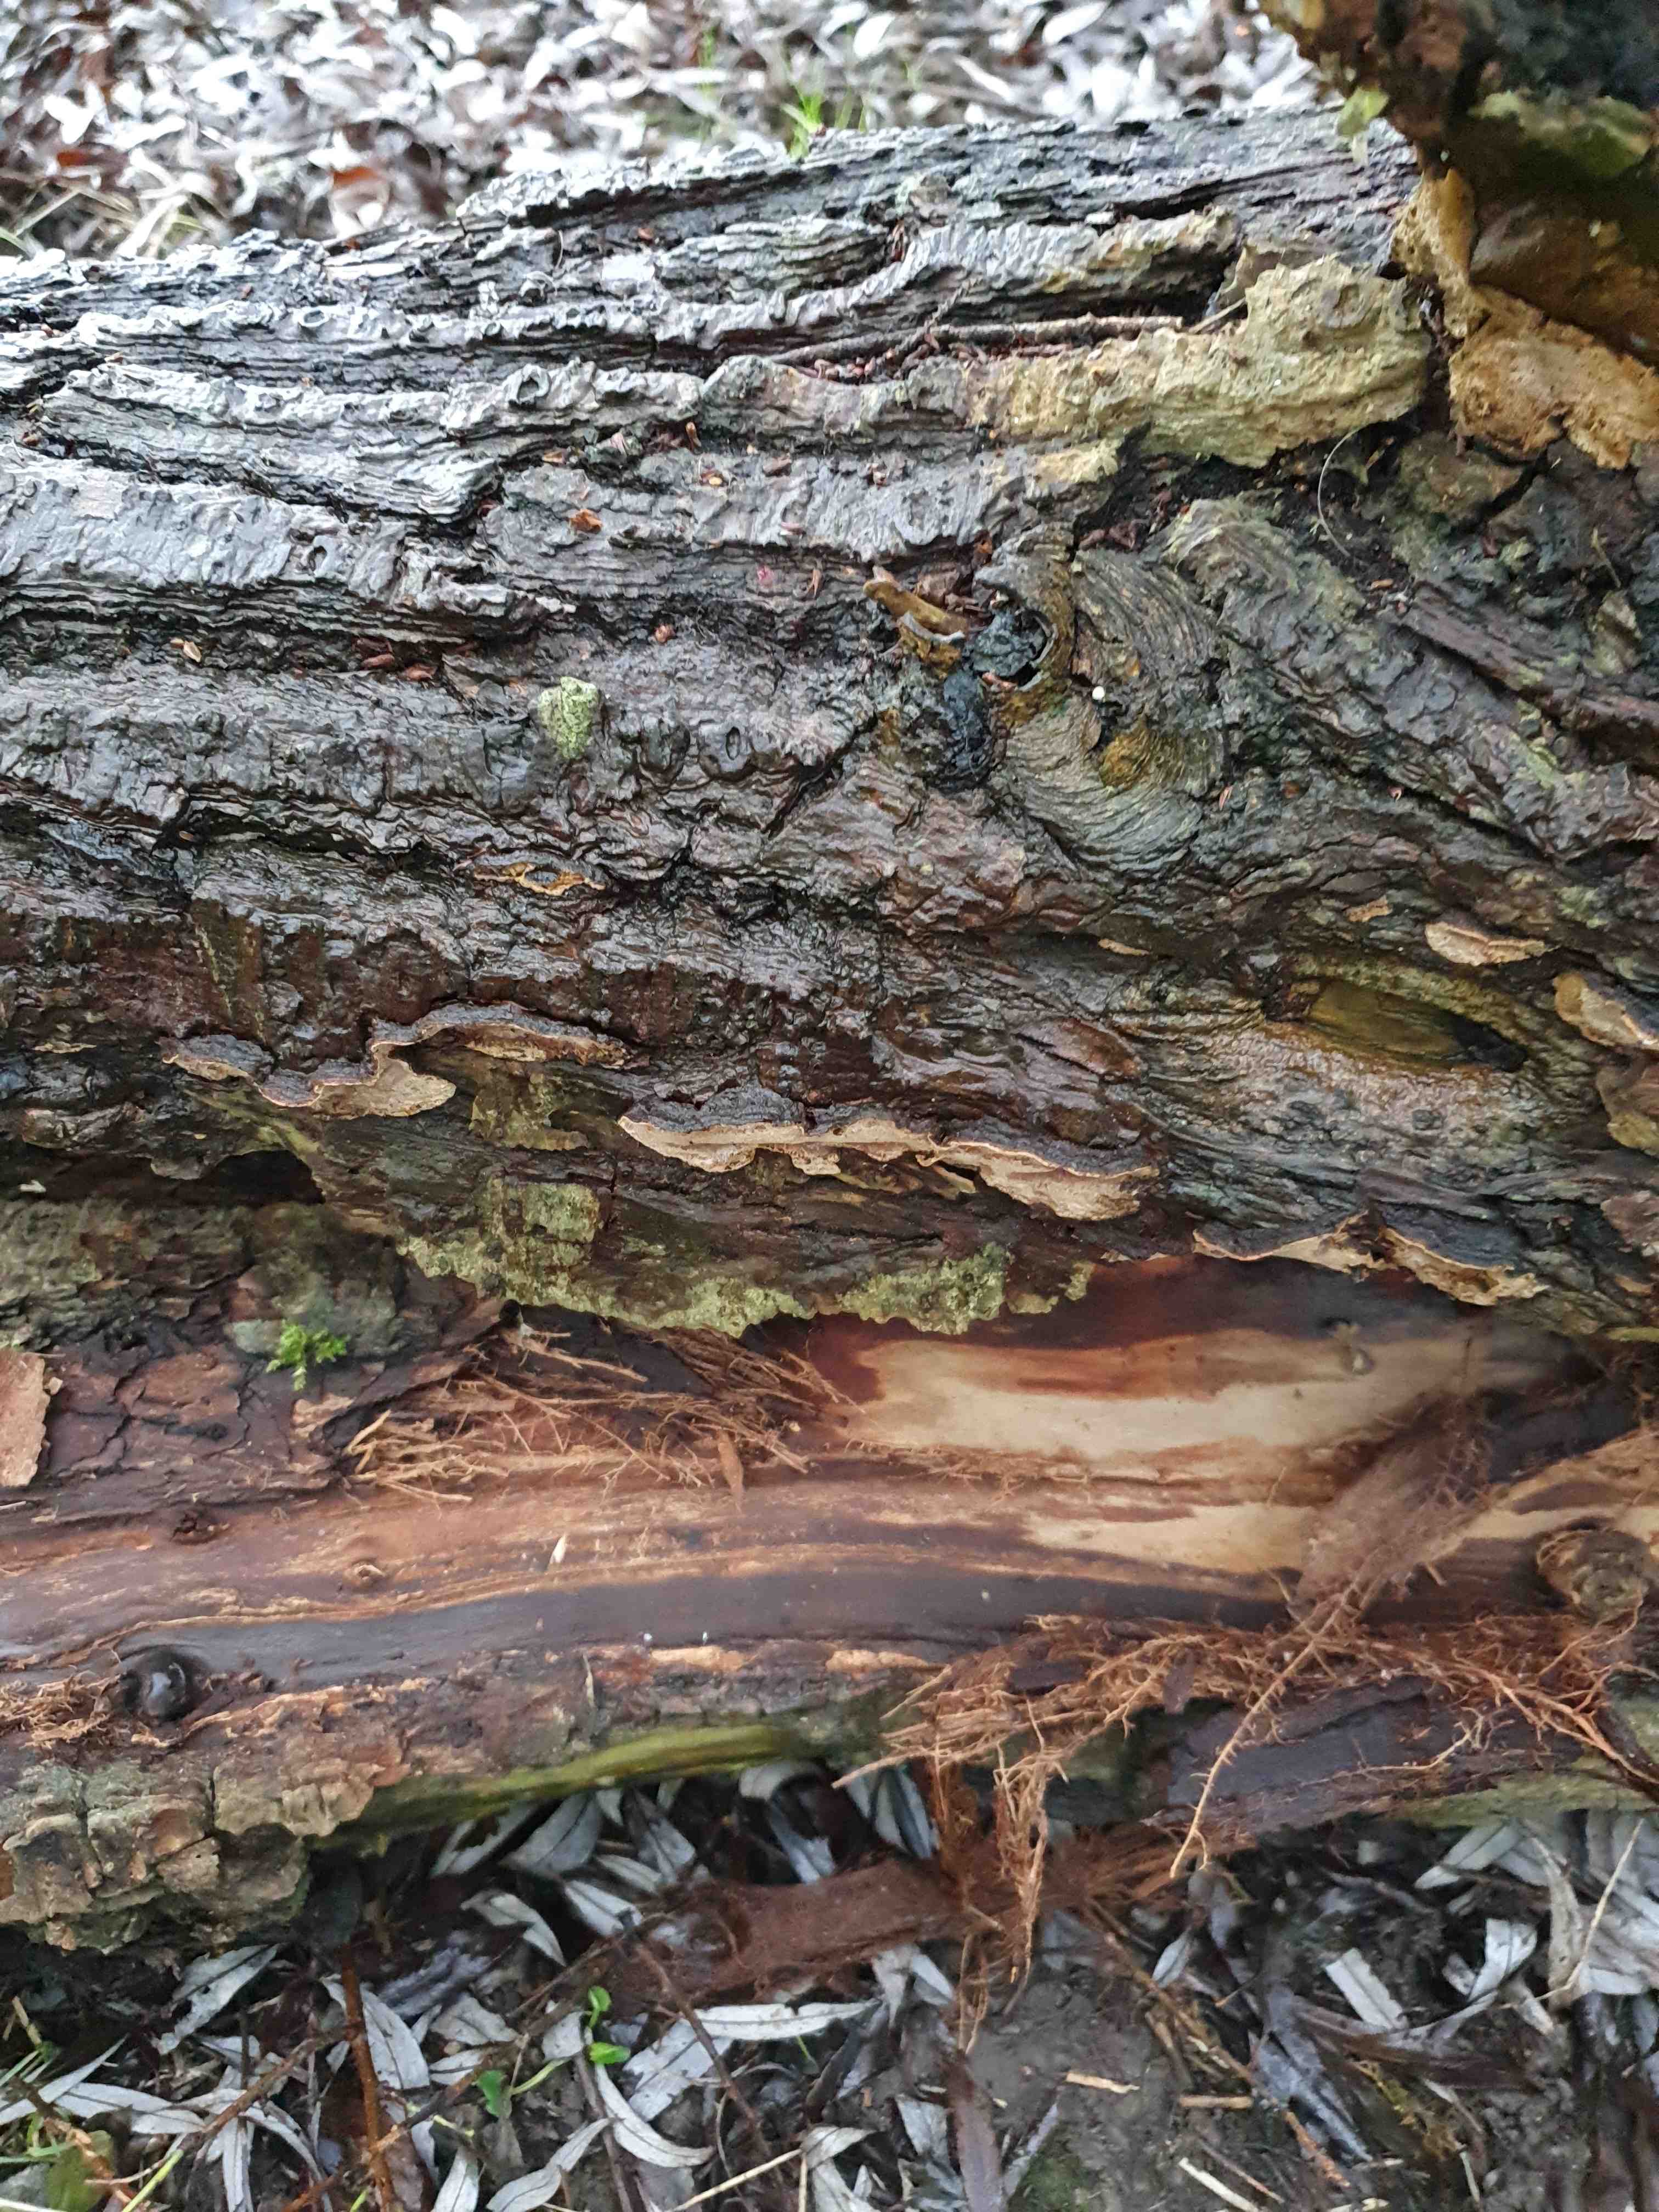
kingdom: Fungi
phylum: Basidiomycota
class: Agaricomycetes
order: Hymenochaetales
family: Hymenochaetaceae
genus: Phellinopsis
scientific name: Phellinopsis conchata
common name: pile-ildporesvamp
